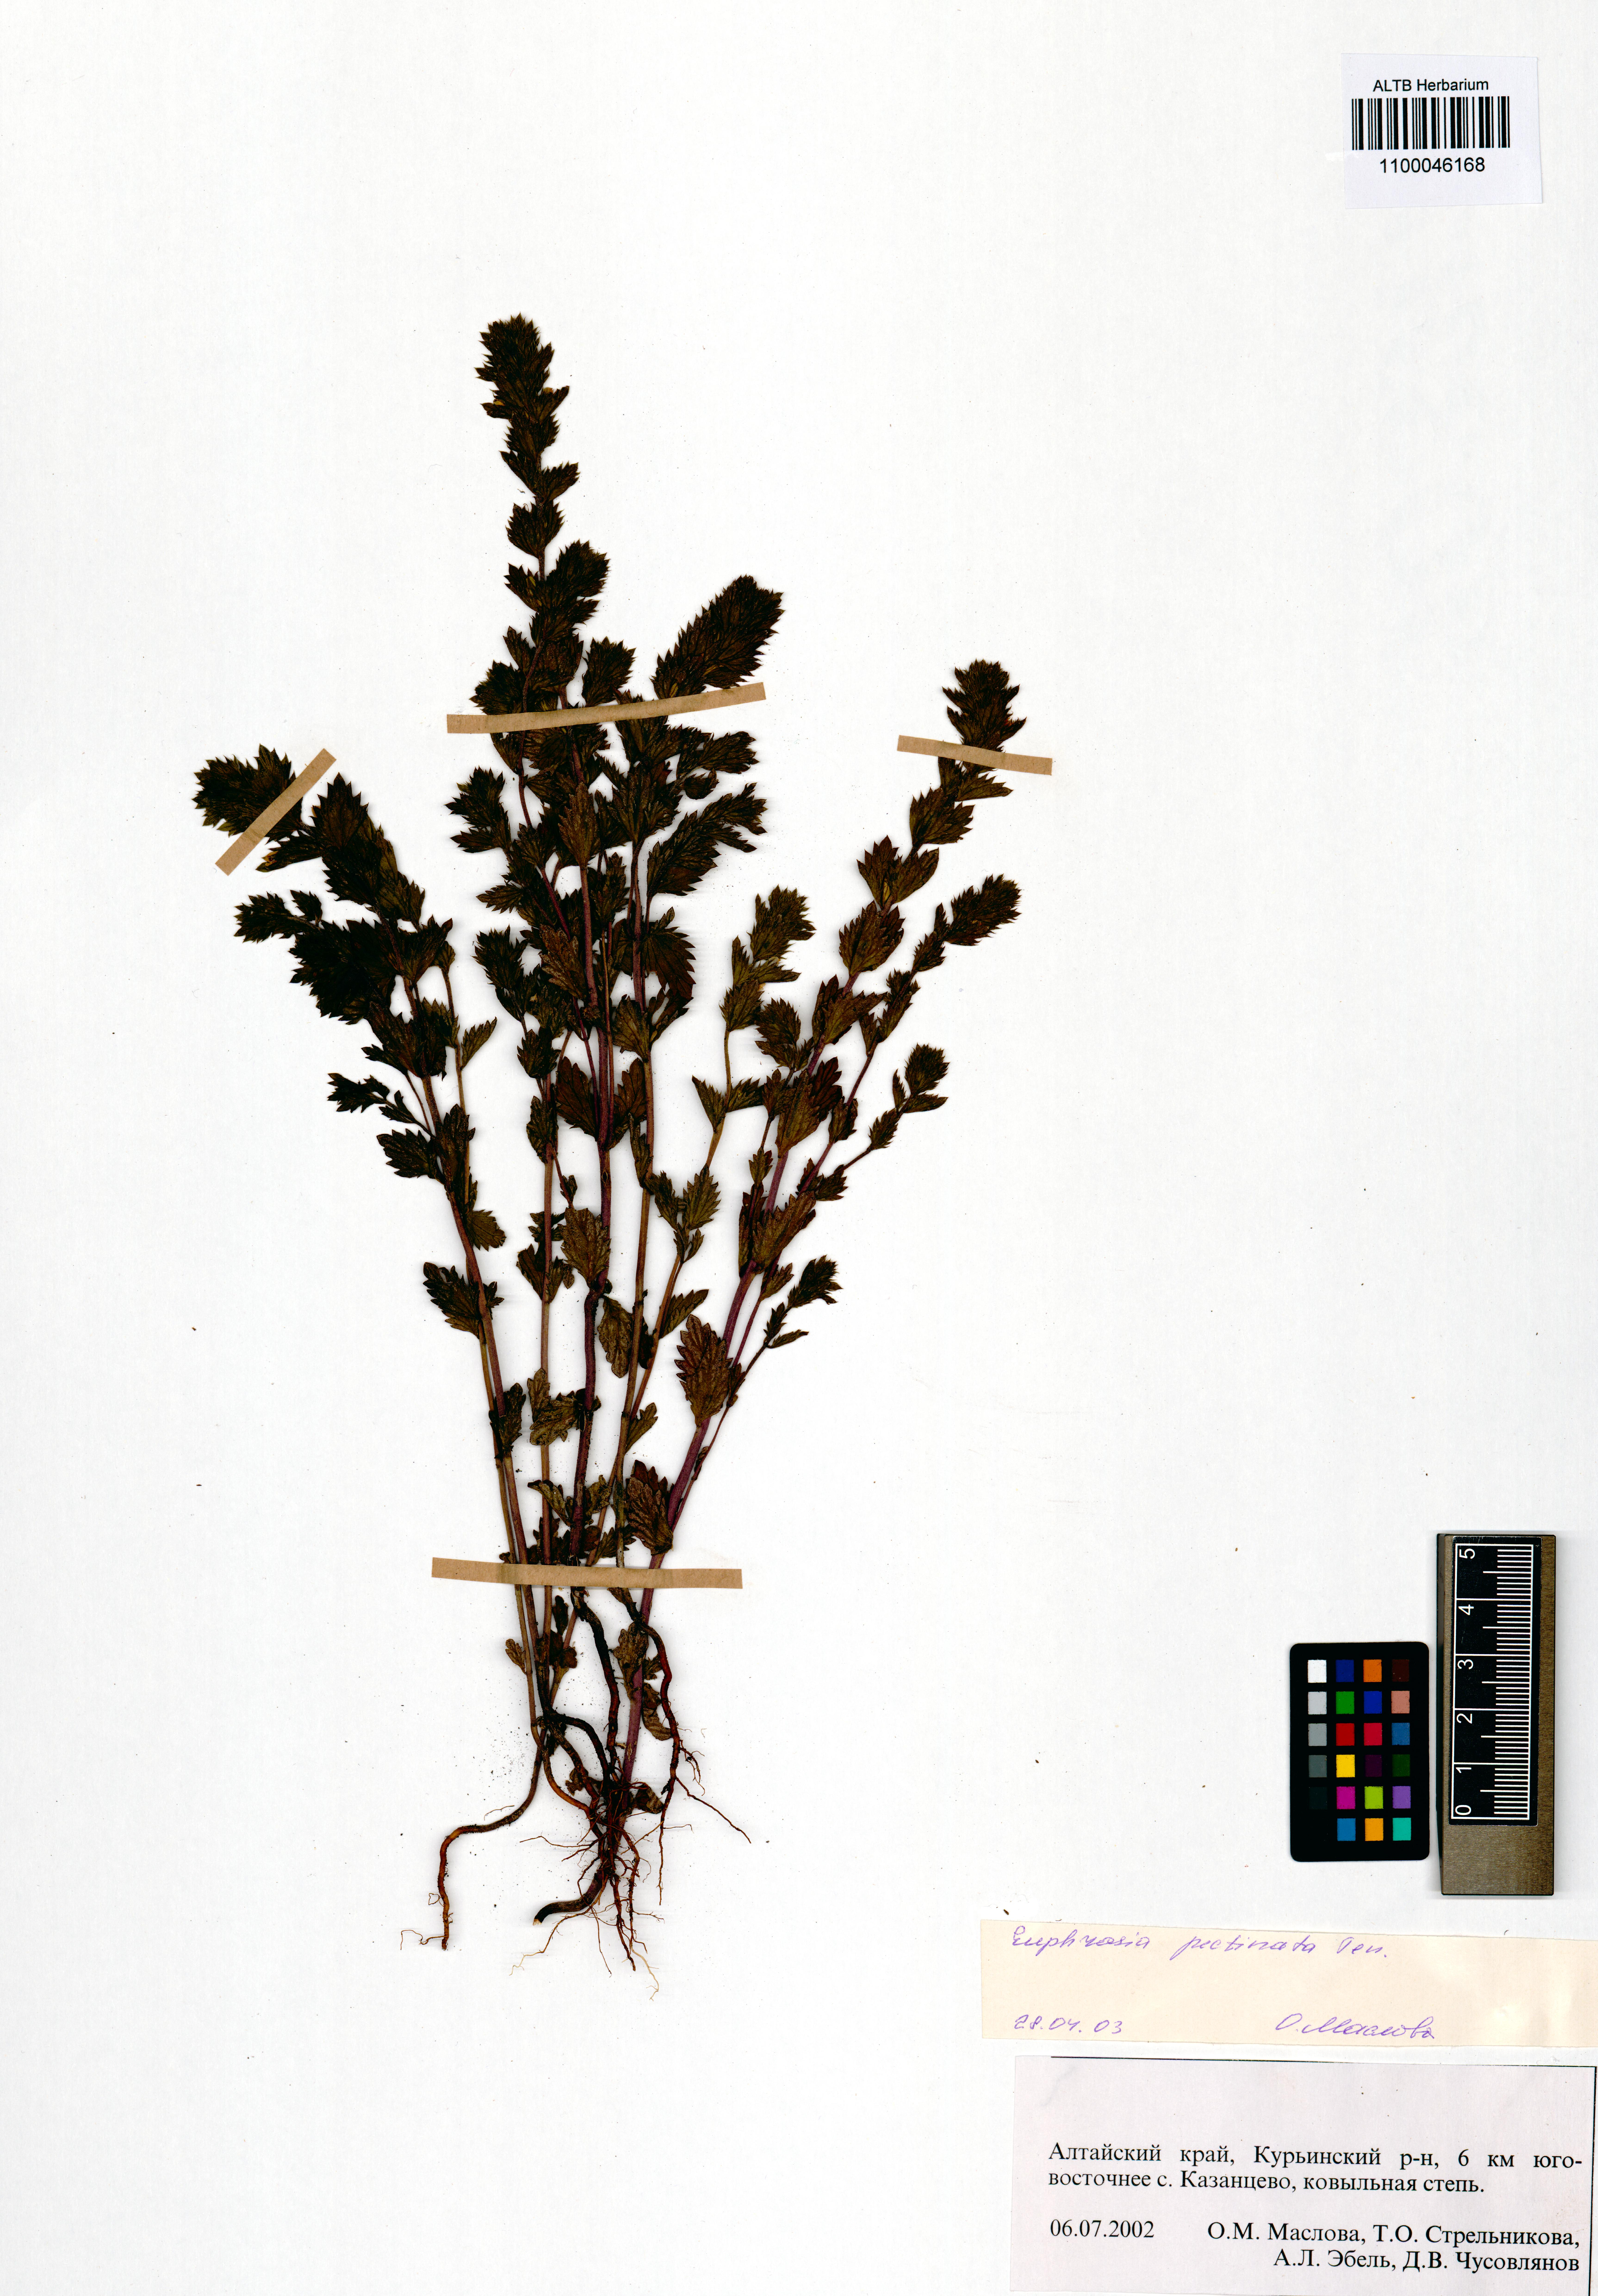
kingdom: Plantae
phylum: Tracheophyta
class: Magnoliopsida
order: Lamiales
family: Orobanchaceae
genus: Euphrasia
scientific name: Euphrasia pectinata
